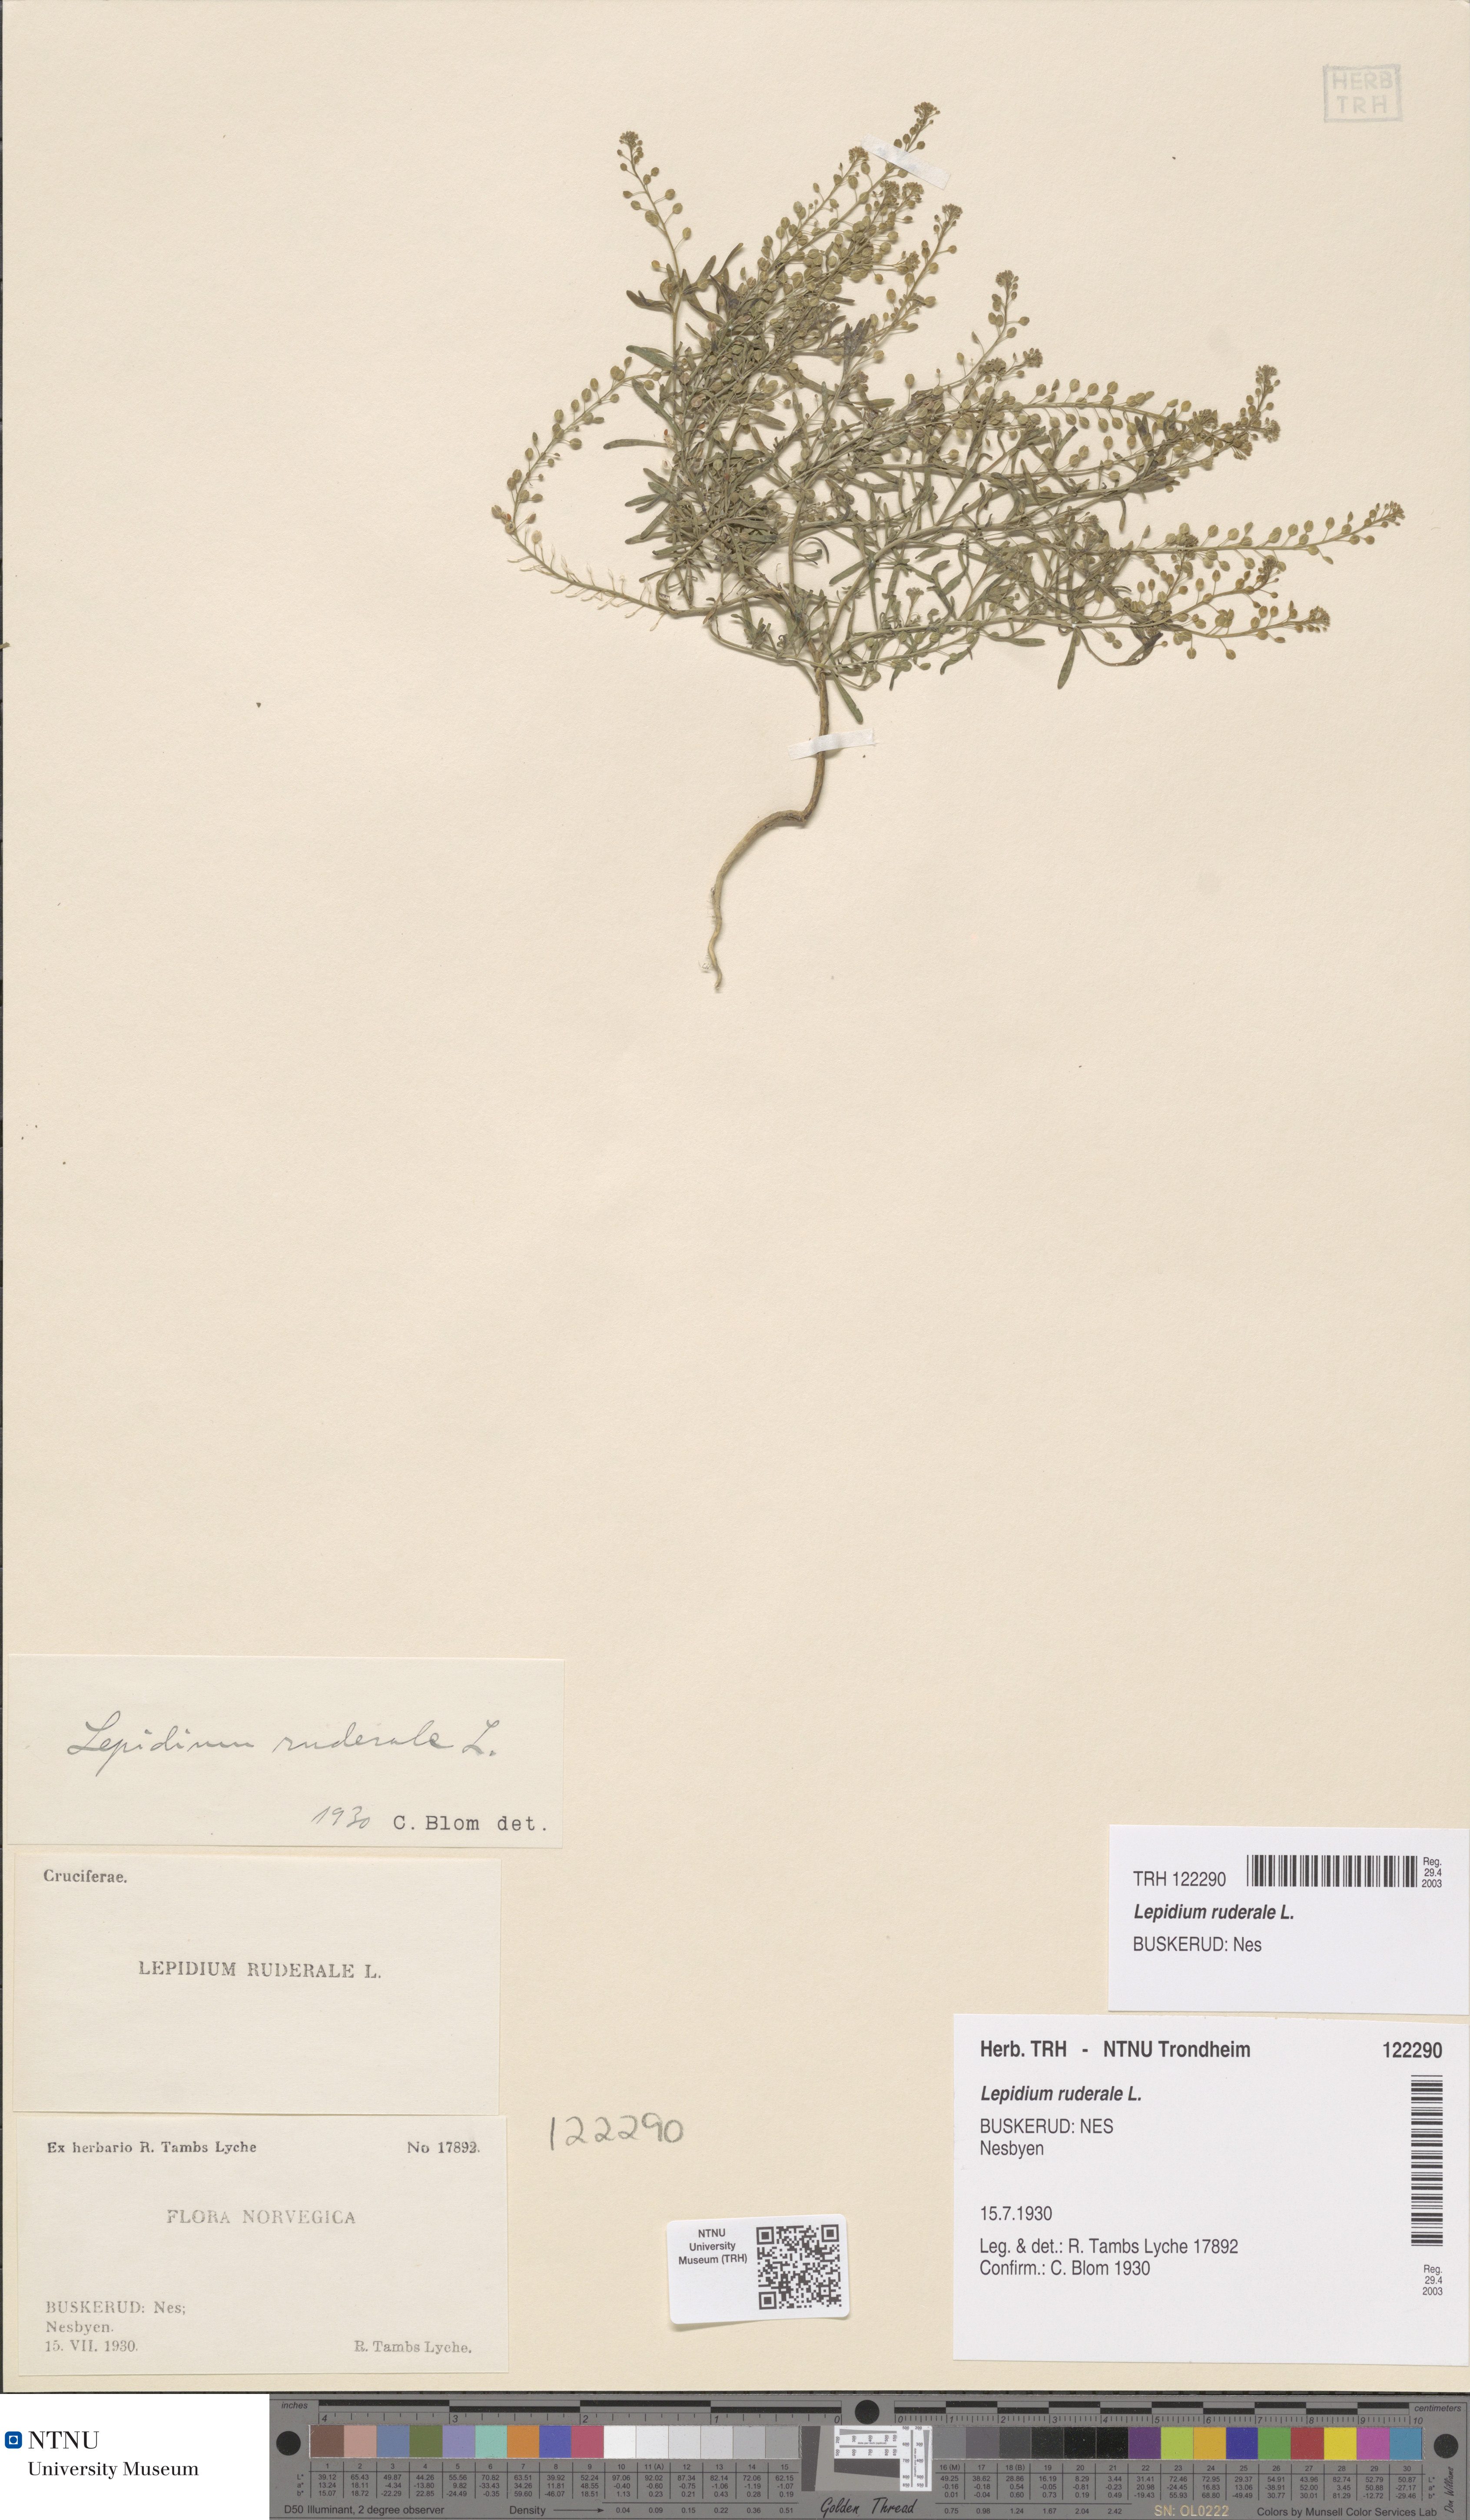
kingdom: Plantae
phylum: Tracheophyta
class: Magnoliopsida
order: Brassicales
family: Brassicaceae
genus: Lepidium
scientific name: Lepidium ruderale
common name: Narrow-leaved pepperwort
